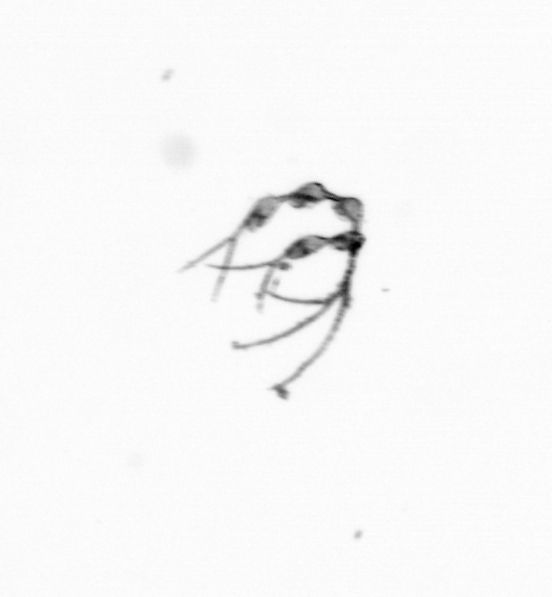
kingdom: Animalia
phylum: Cnidaria
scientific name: Cnidaria
